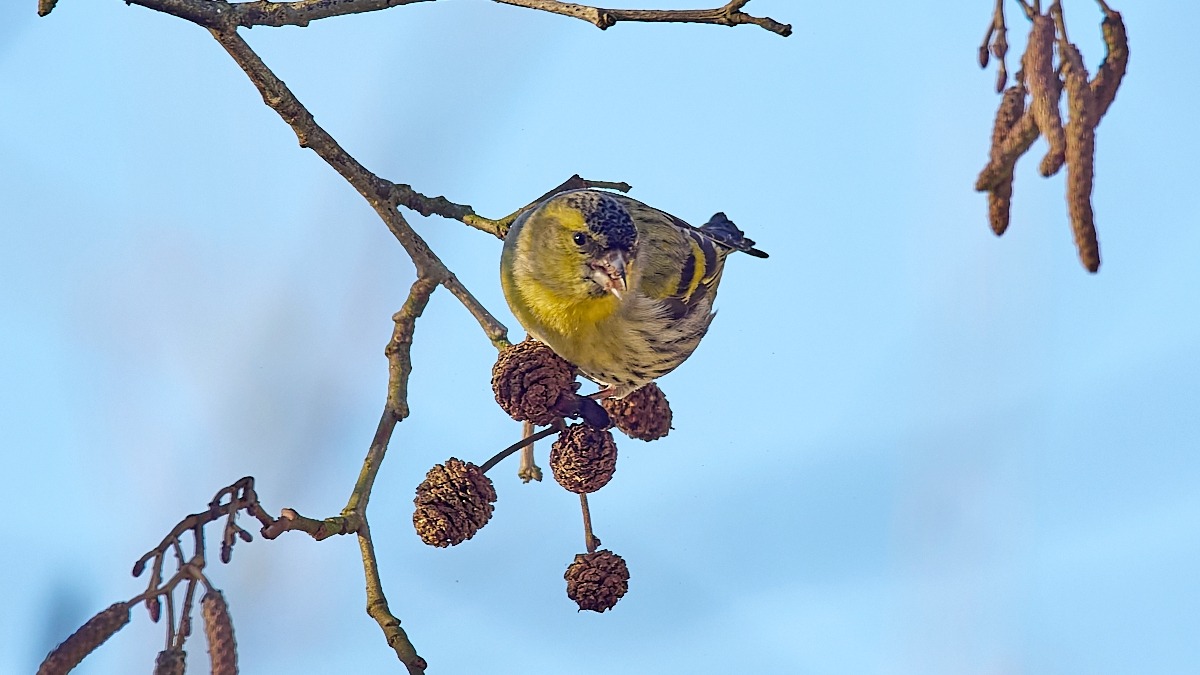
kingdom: Animalia
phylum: Chordata
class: Aves
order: Passeriformes
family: Fringillidae
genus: Spinus
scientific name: Spinus spinus
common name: Grønsisken
